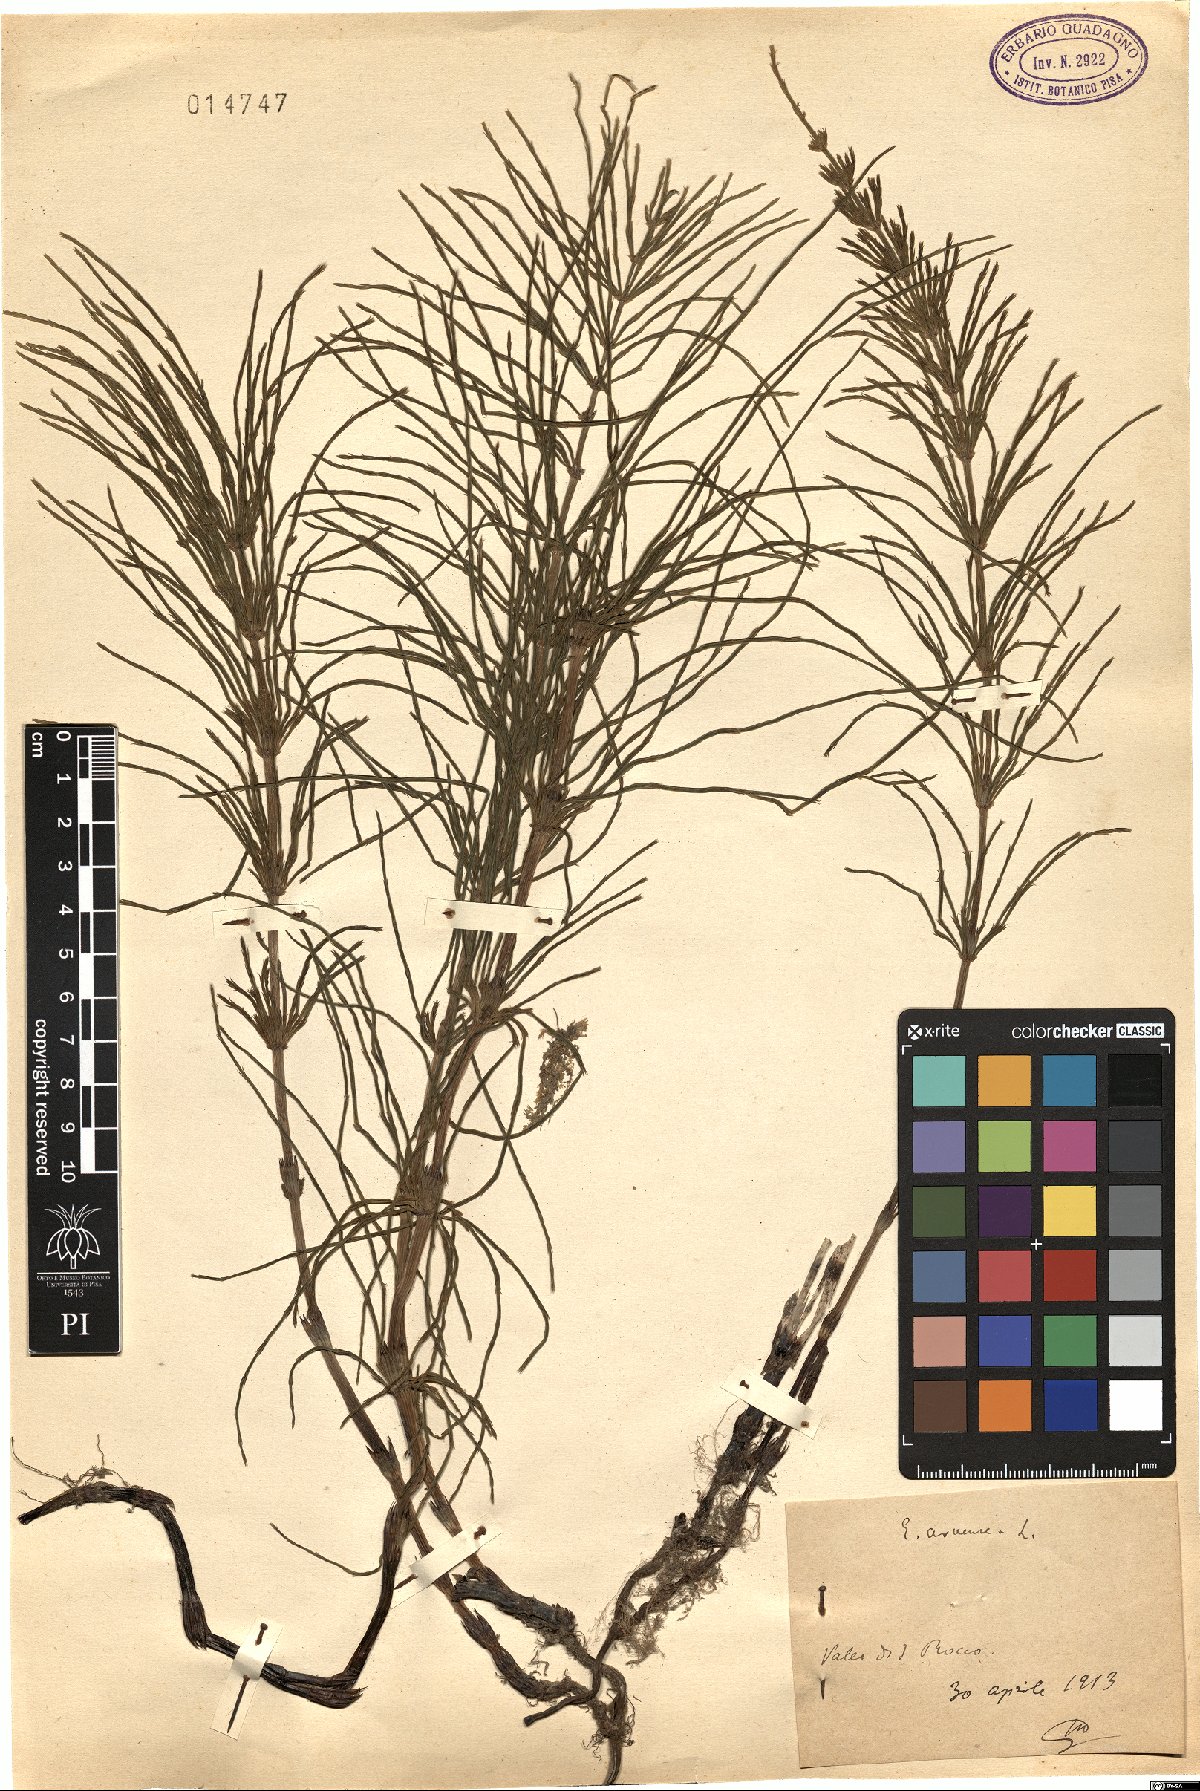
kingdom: Plantae
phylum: Tracheophyta
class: Polypodiopsida
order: Equisetales
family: Equisetaceae
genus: Equisetum
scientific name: Equisetum arvense
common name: Field horsetail
